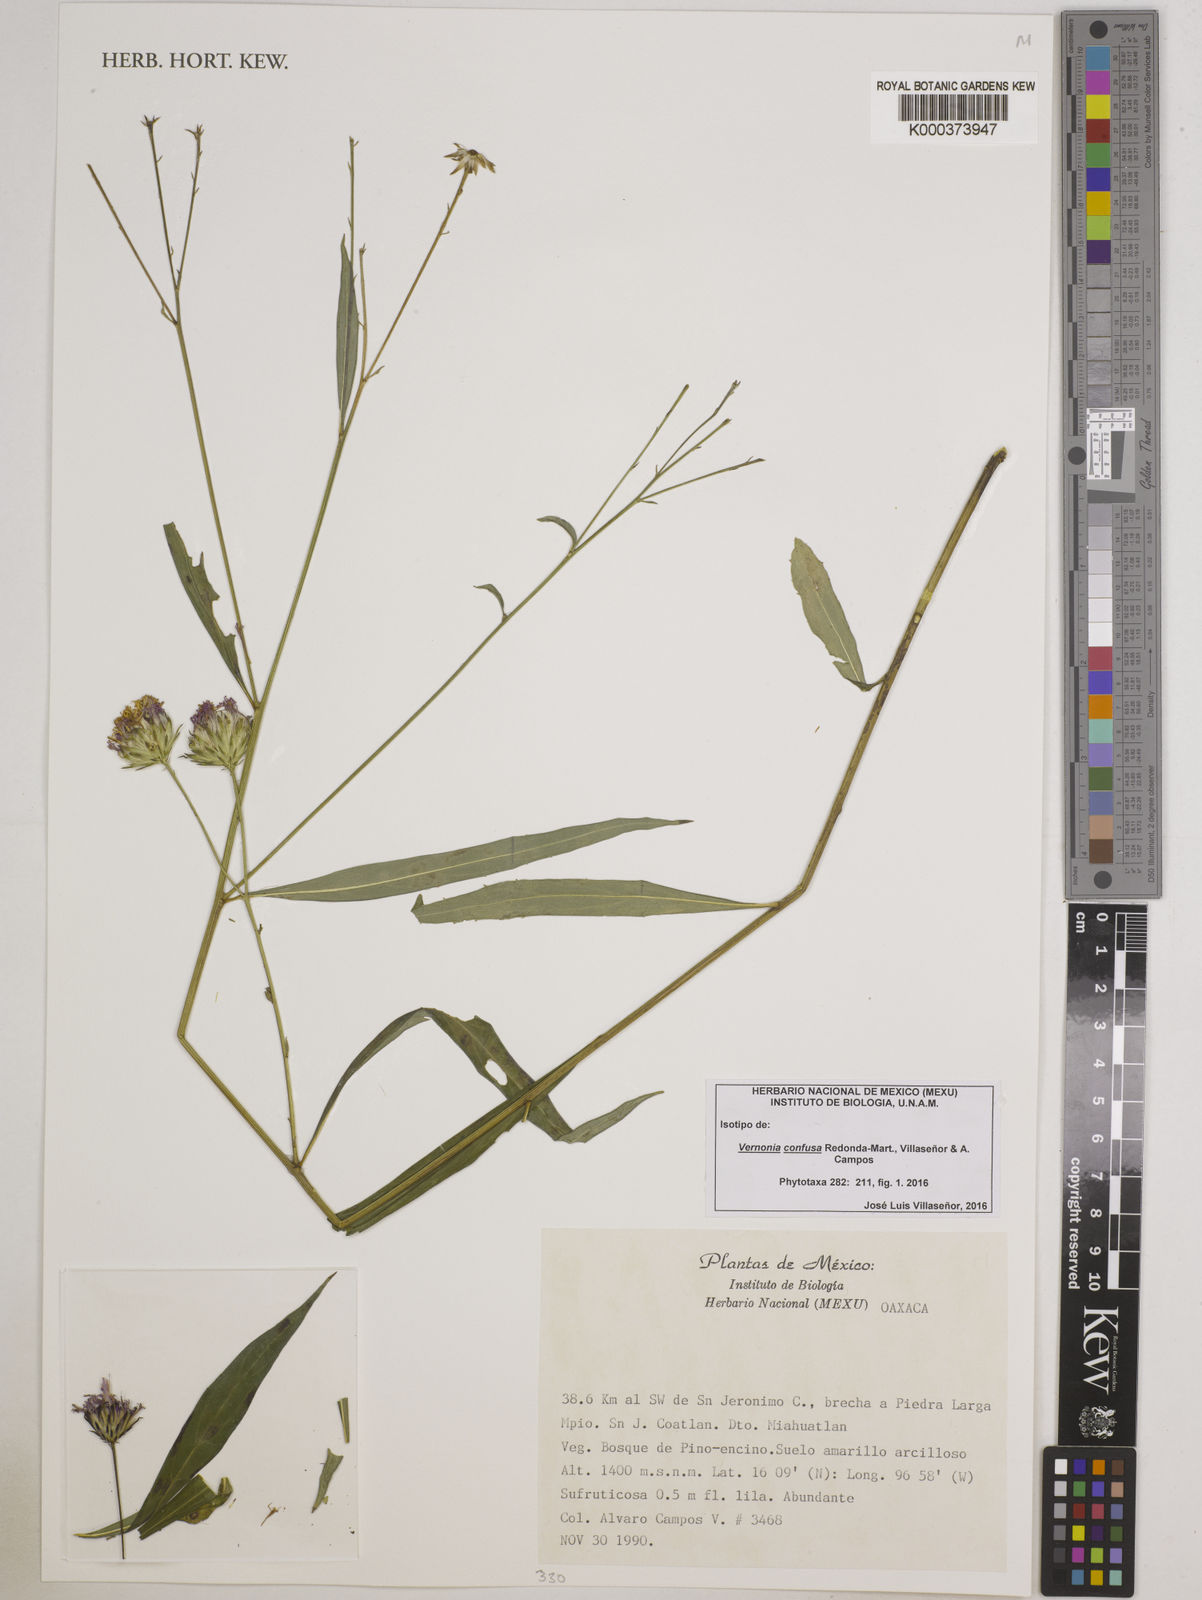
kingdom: Plantae
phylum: Tracheophyta
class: Magnoliopsida
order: Asterales
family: Asteraceae
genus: Vernonia
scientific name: Vernonia
